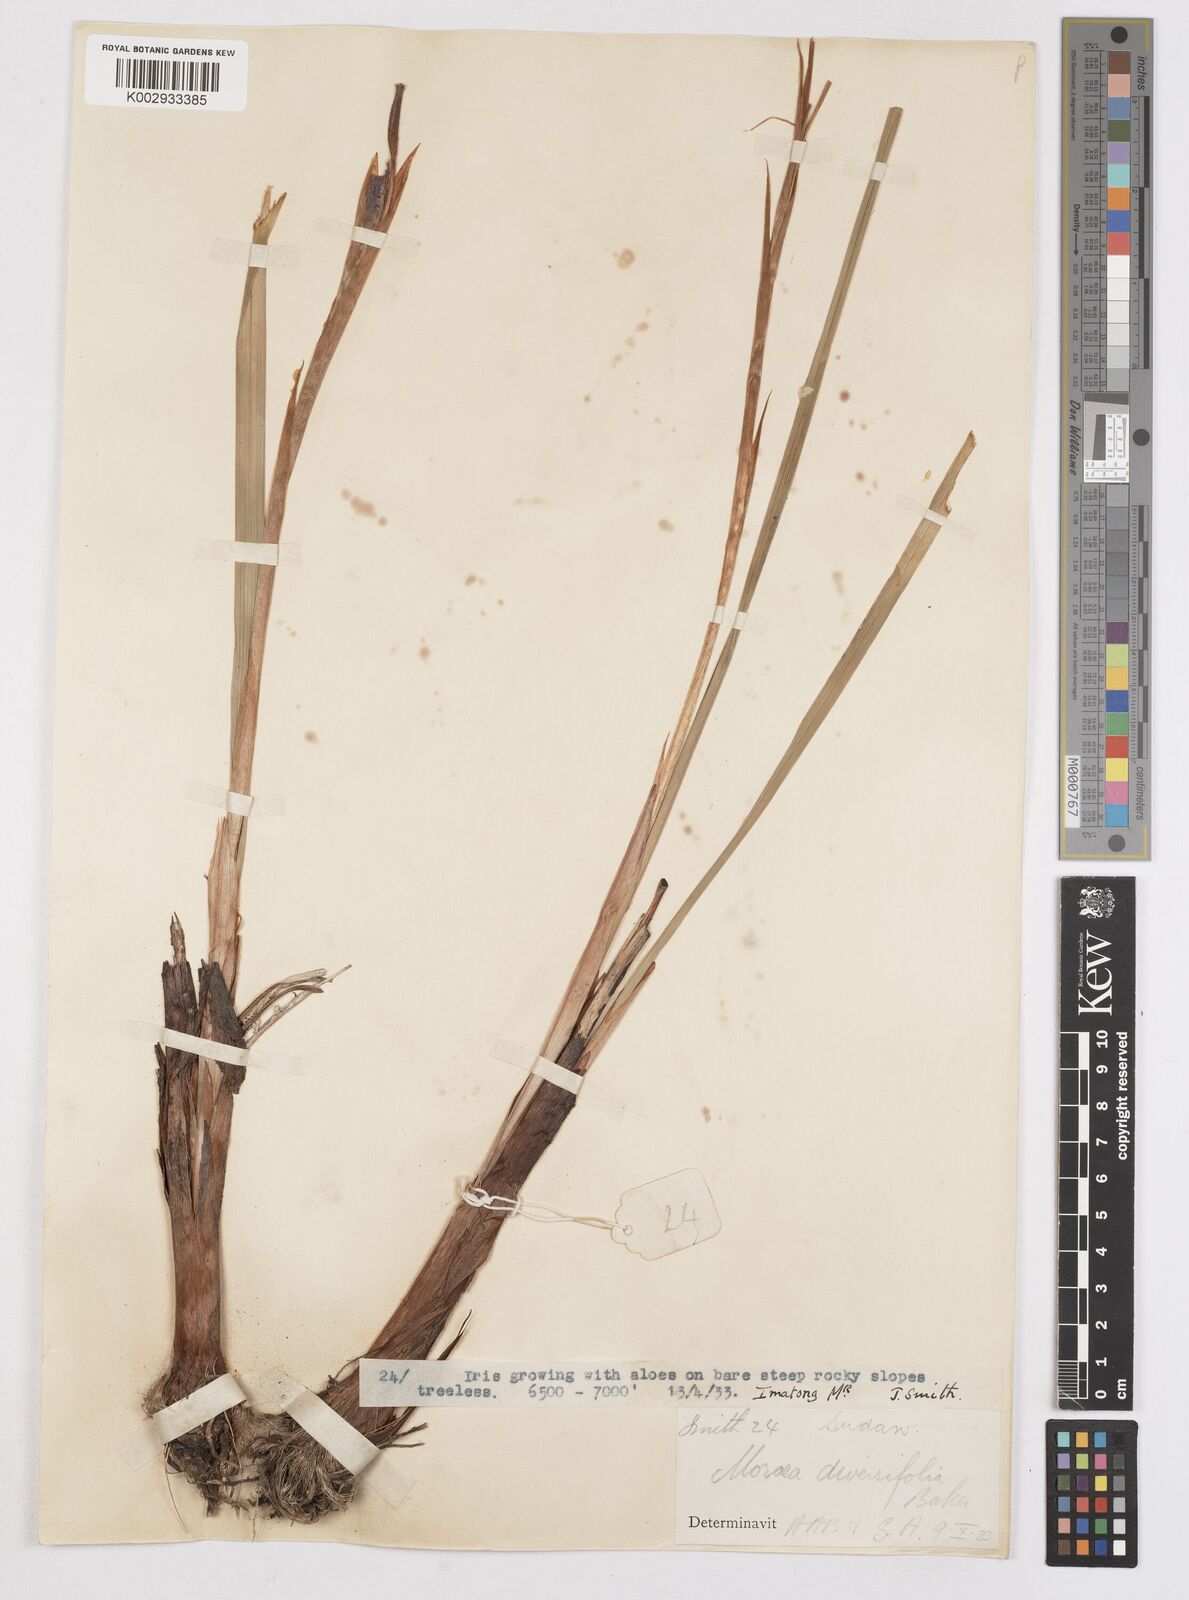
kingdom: Plantae
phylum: Tracheophyta
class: Liliopsida
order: Asparagales
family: Iridaceae
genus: Moraea
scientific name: Moraea schimperi
